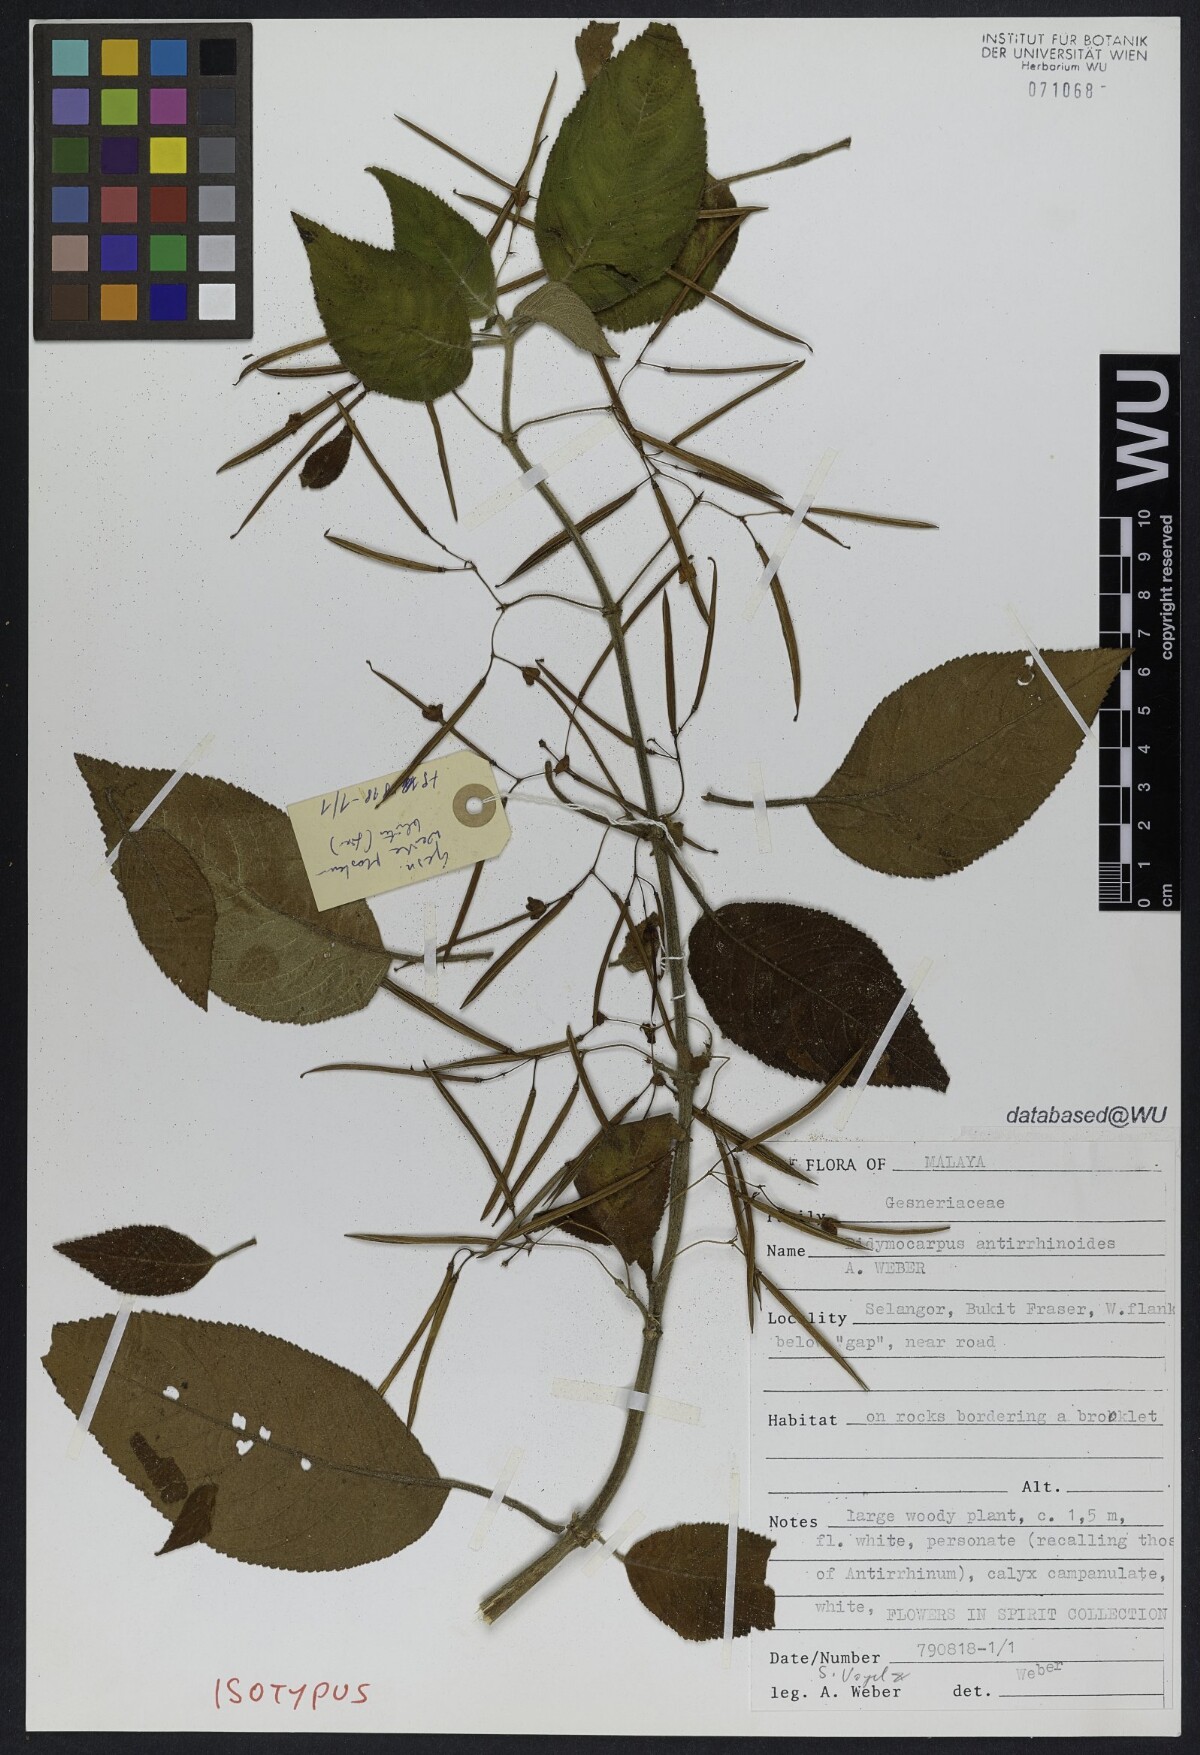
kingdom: Plantae
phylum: Tracheophyta
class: Magnoliopsida
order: Lamiales
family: Gesneriaceae
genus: Didymocarpus
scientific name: Didymocarpus antirrhinoides
